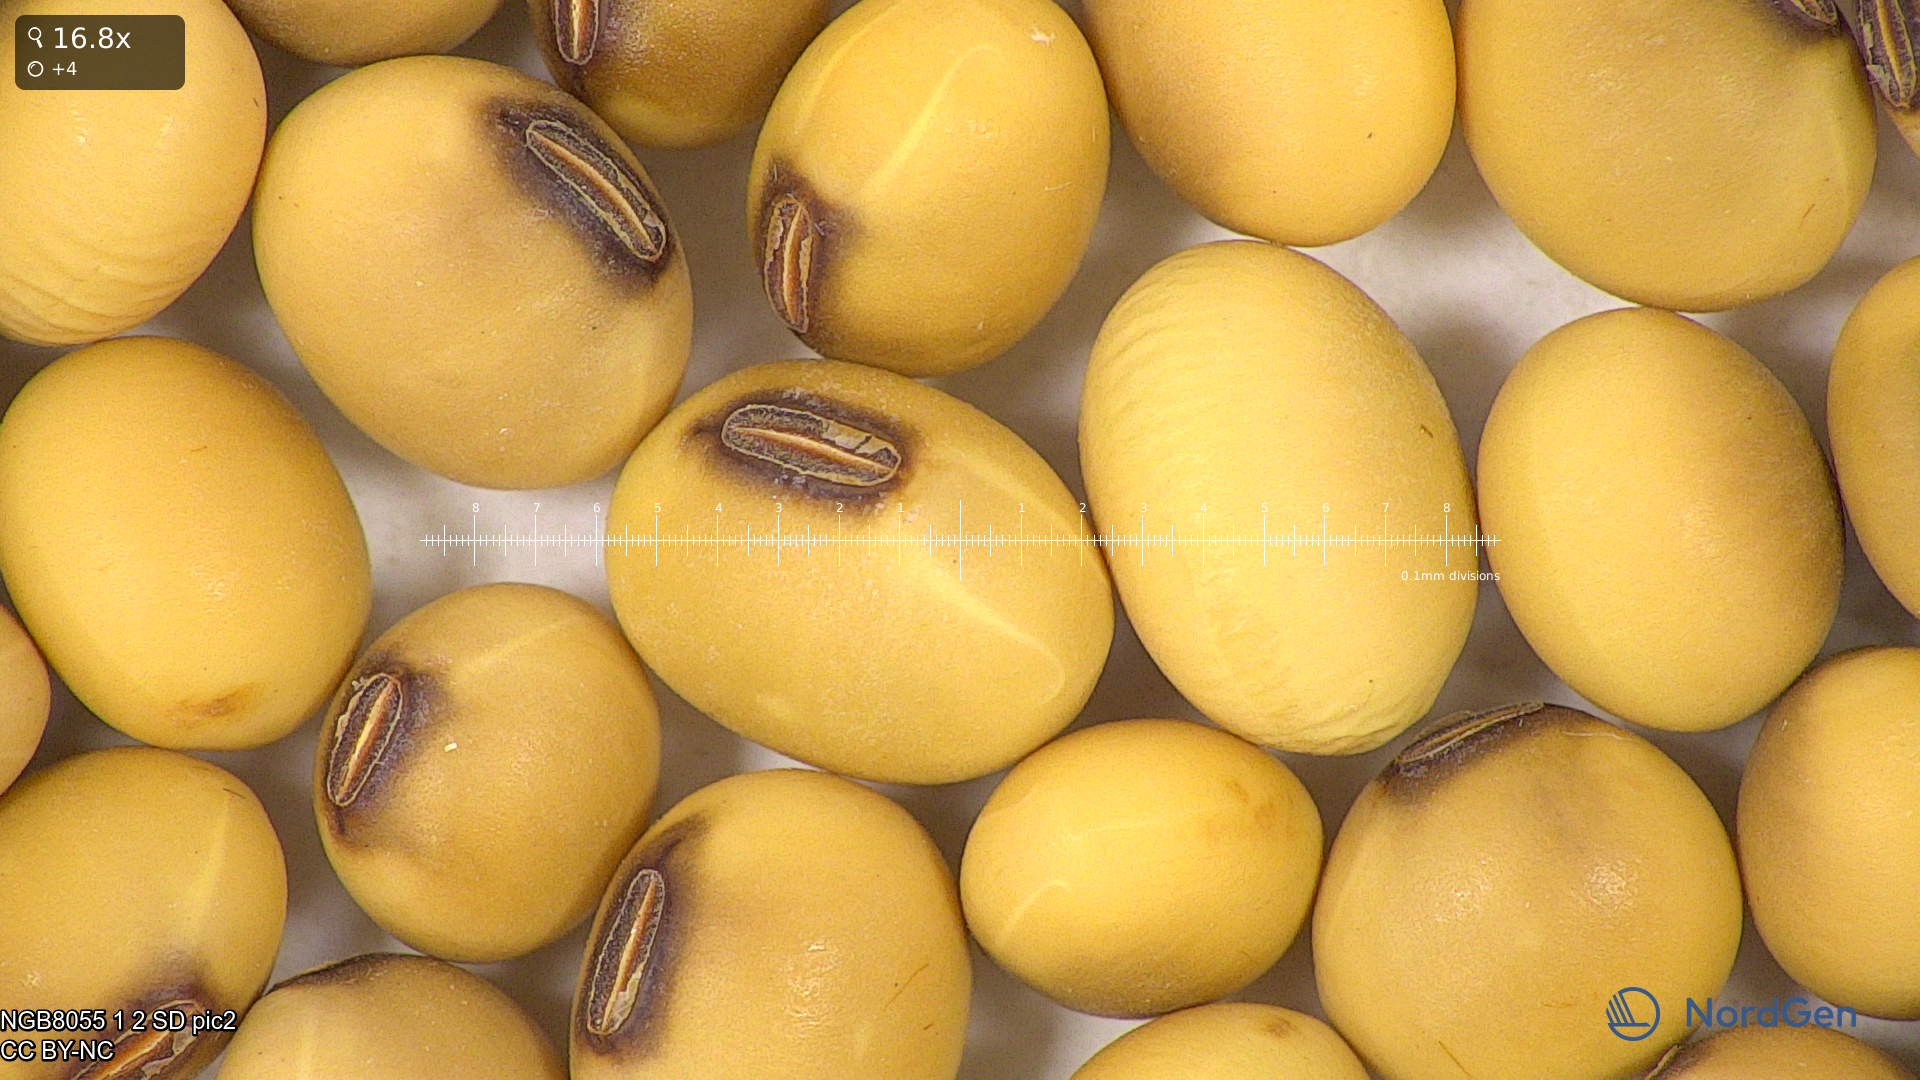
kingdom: Plantae
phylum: Tracheophyta
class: Magnoliopsida
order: Fabales
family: Fabaceae
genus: Glycine
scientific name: Glycine max
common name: Soya-bean
